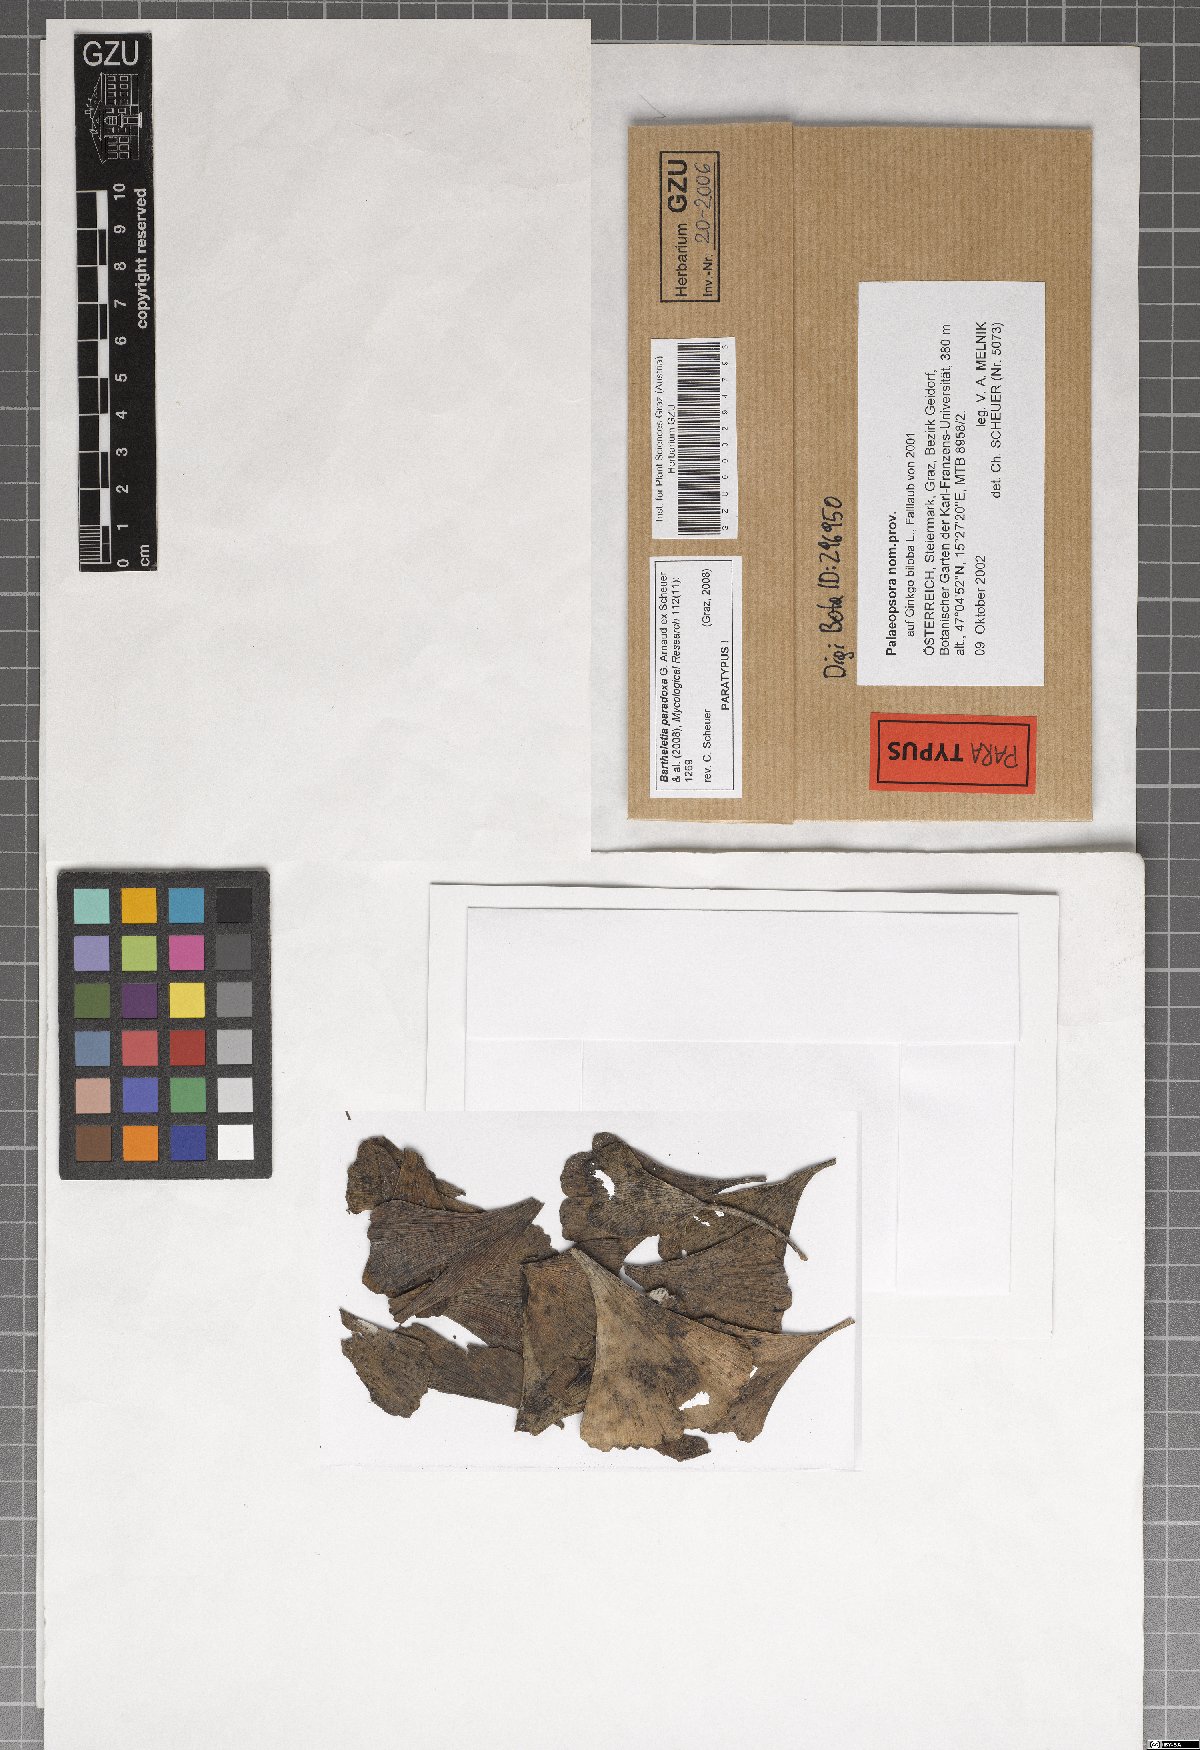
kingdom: Fungi
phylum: Basidiomycota
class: Wallemiomycetes
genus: Bartheletia
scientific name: Bartheletia paradoxa
